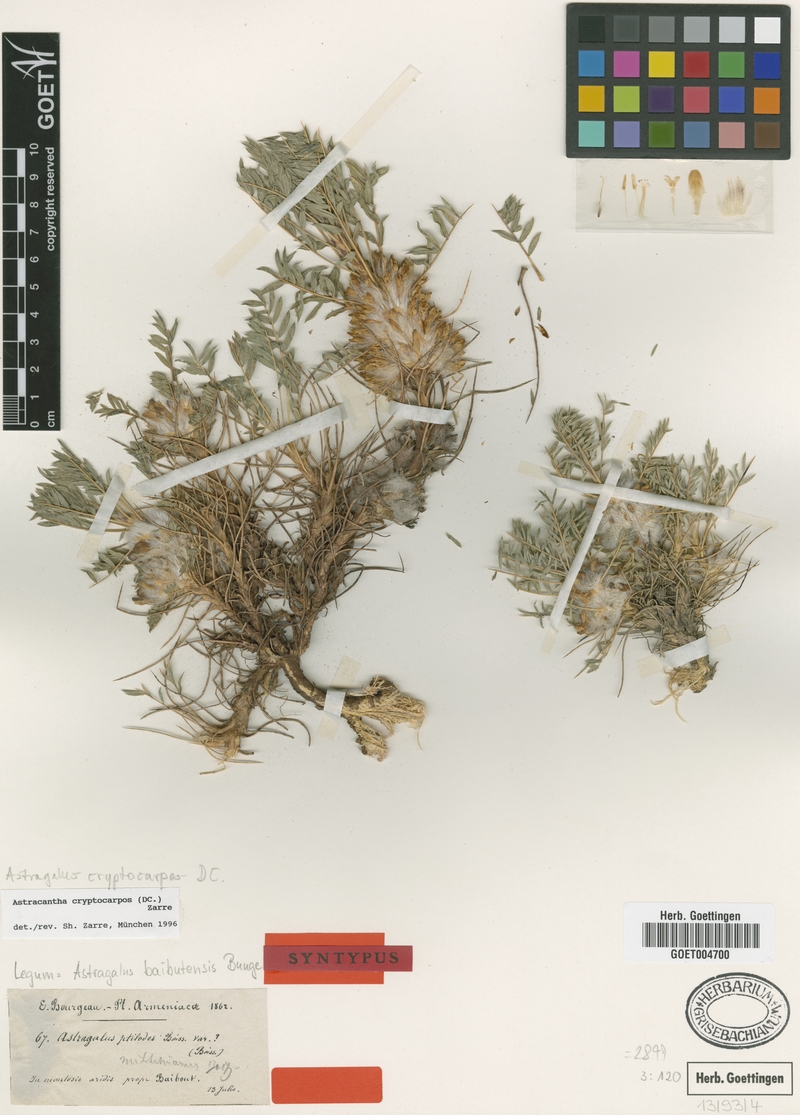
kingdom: Plantae
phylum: Tracheophyta
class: Magnoliopsida
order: Fabales
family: Fabaceae
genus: Astragalus
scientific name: Astragalus baibutensis
